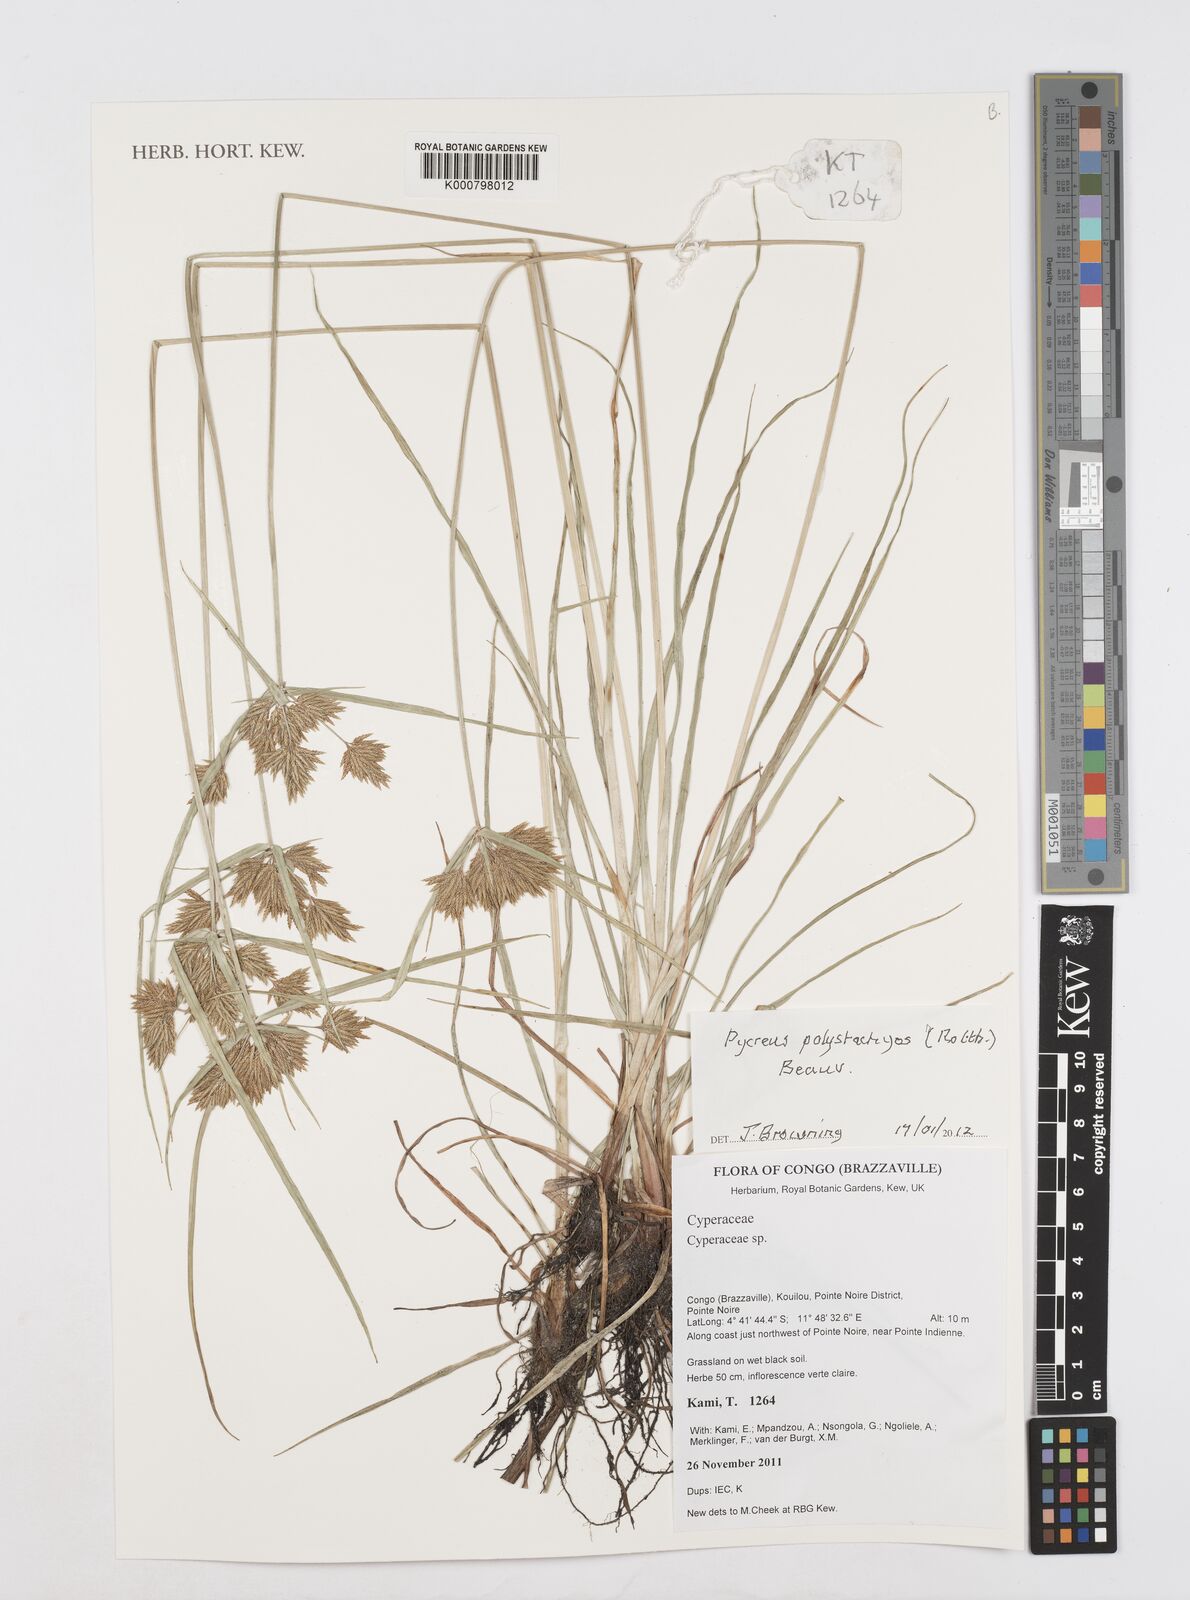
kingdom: Plantae
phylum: Tracheophyta
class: Liliopsida
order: Poales
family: Cyperaceae
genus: Cyperus
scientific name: Cyperus polystachyos
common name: Bunchy flat sedge
